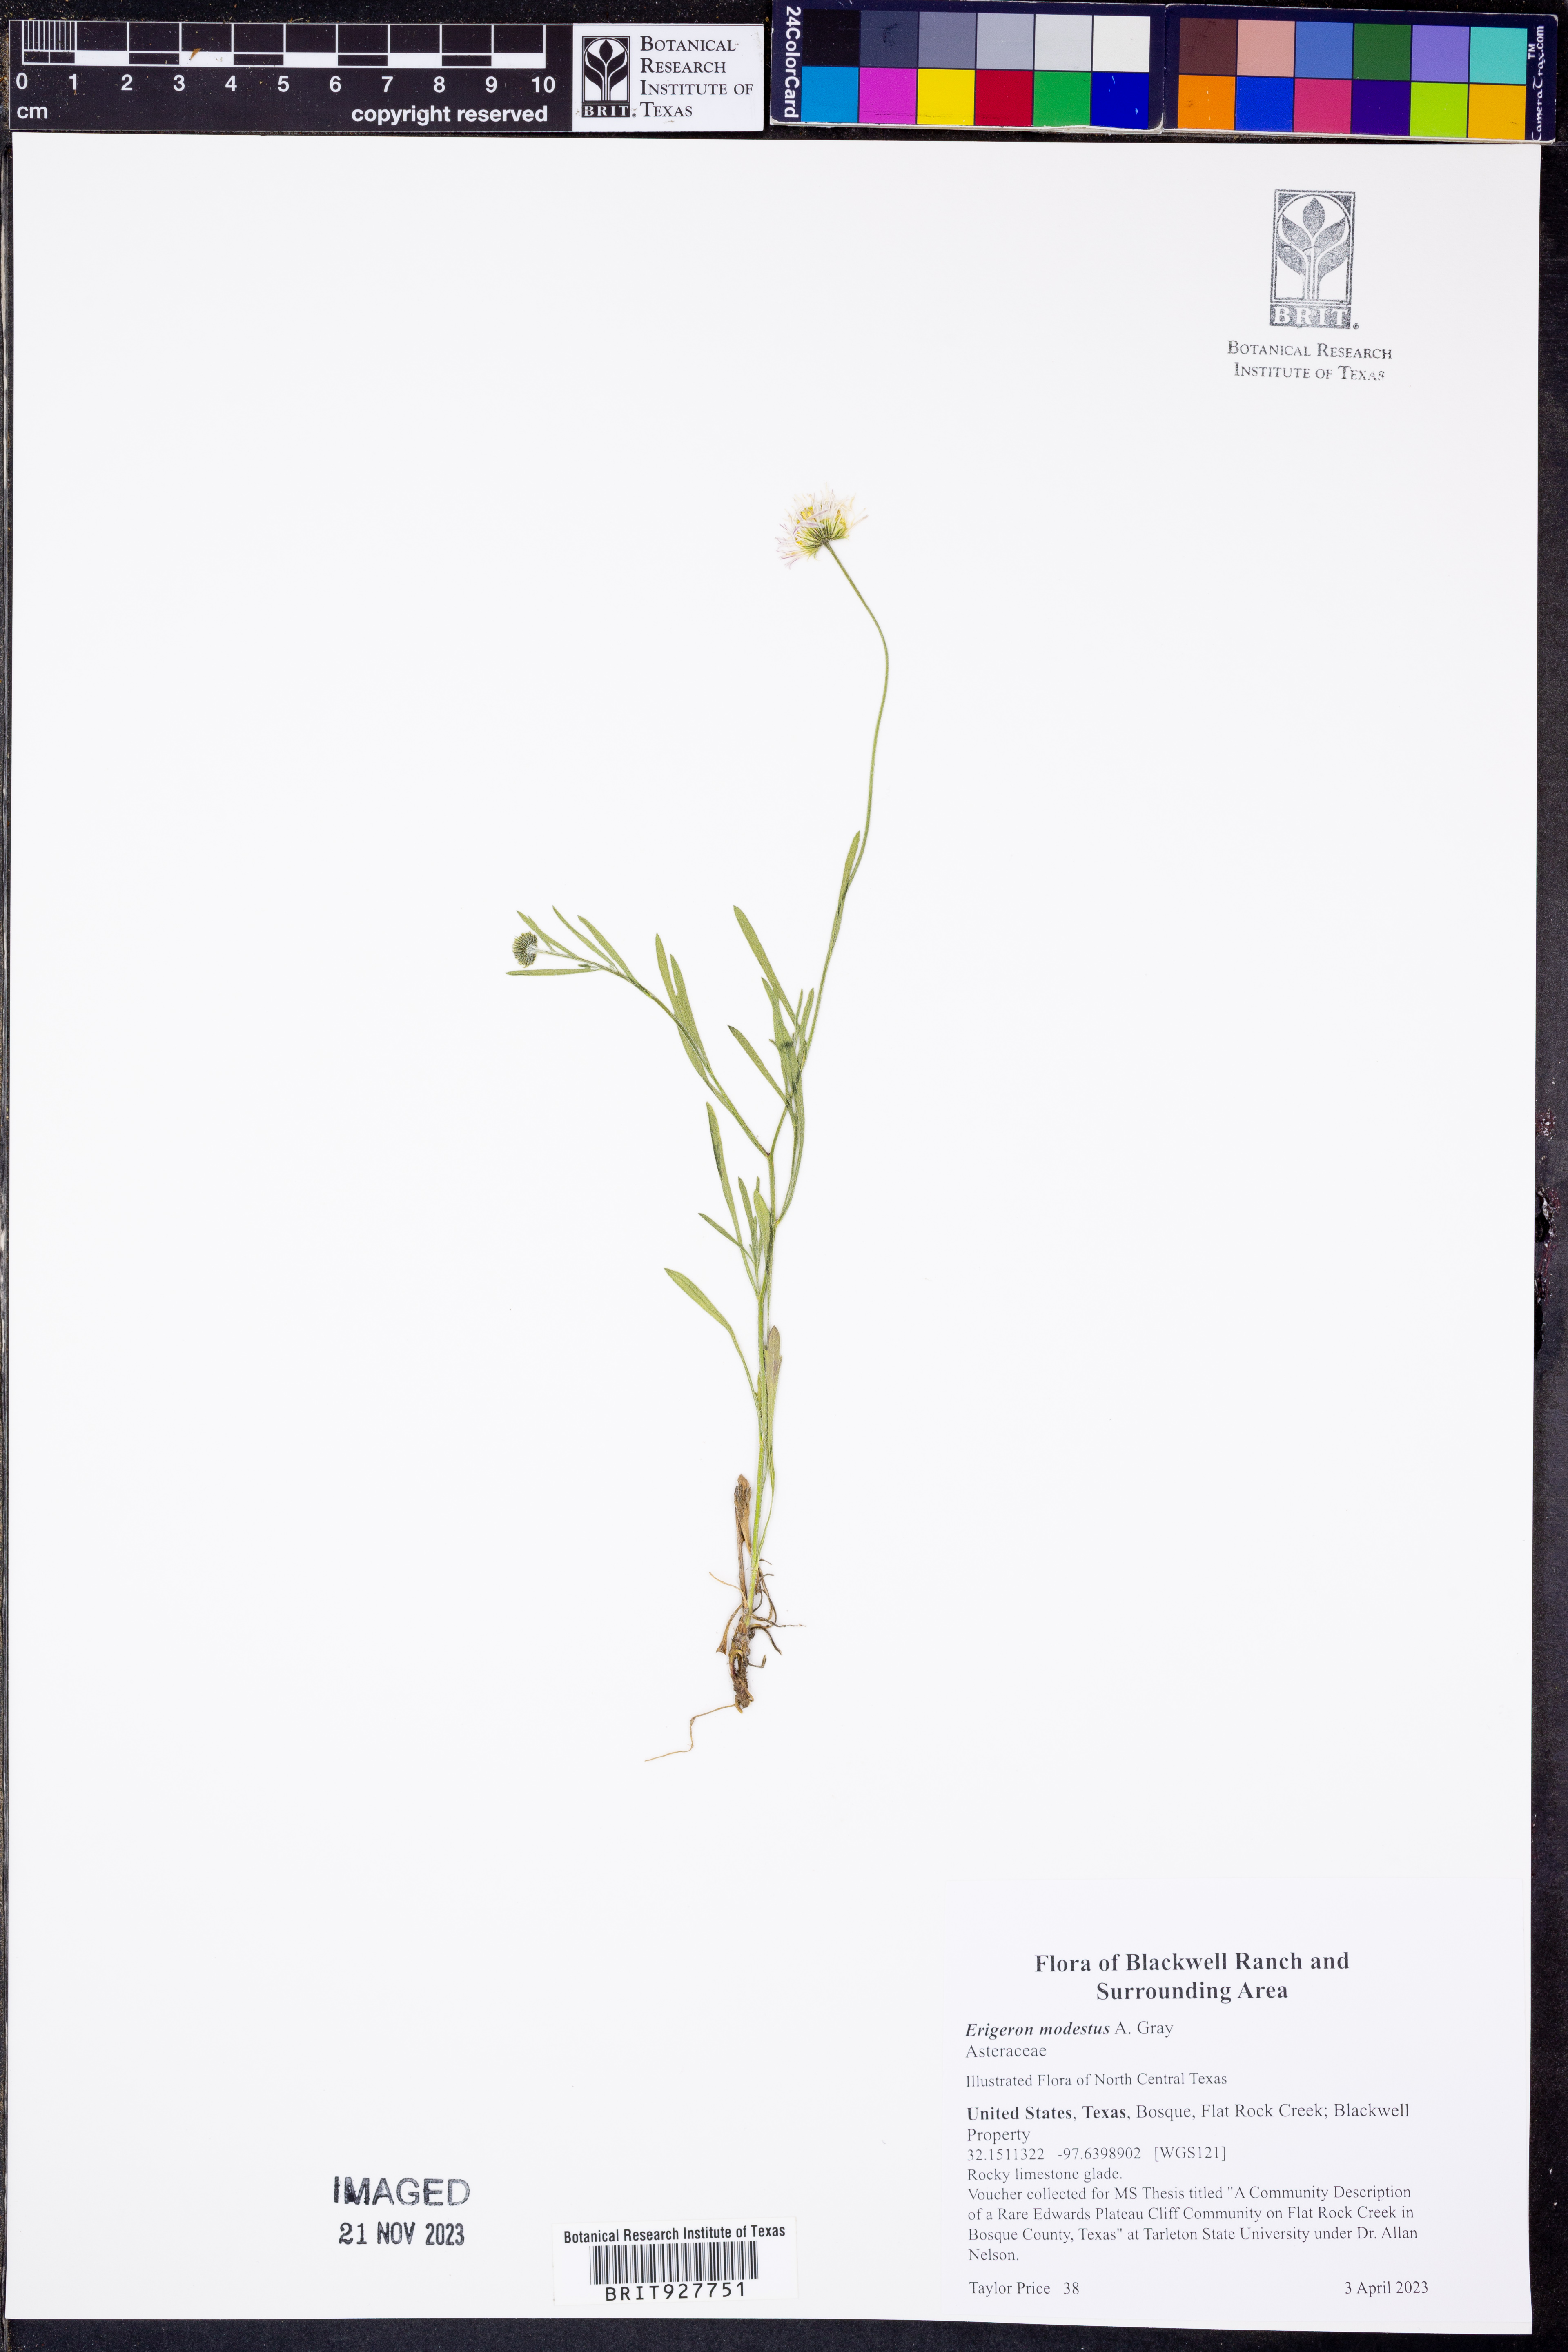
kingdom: Plantae
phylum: Tracheophyta
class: Magnoliopsida
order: Asterales
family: Asteraceae
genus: Erigeron
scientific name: Erigeron modestus
